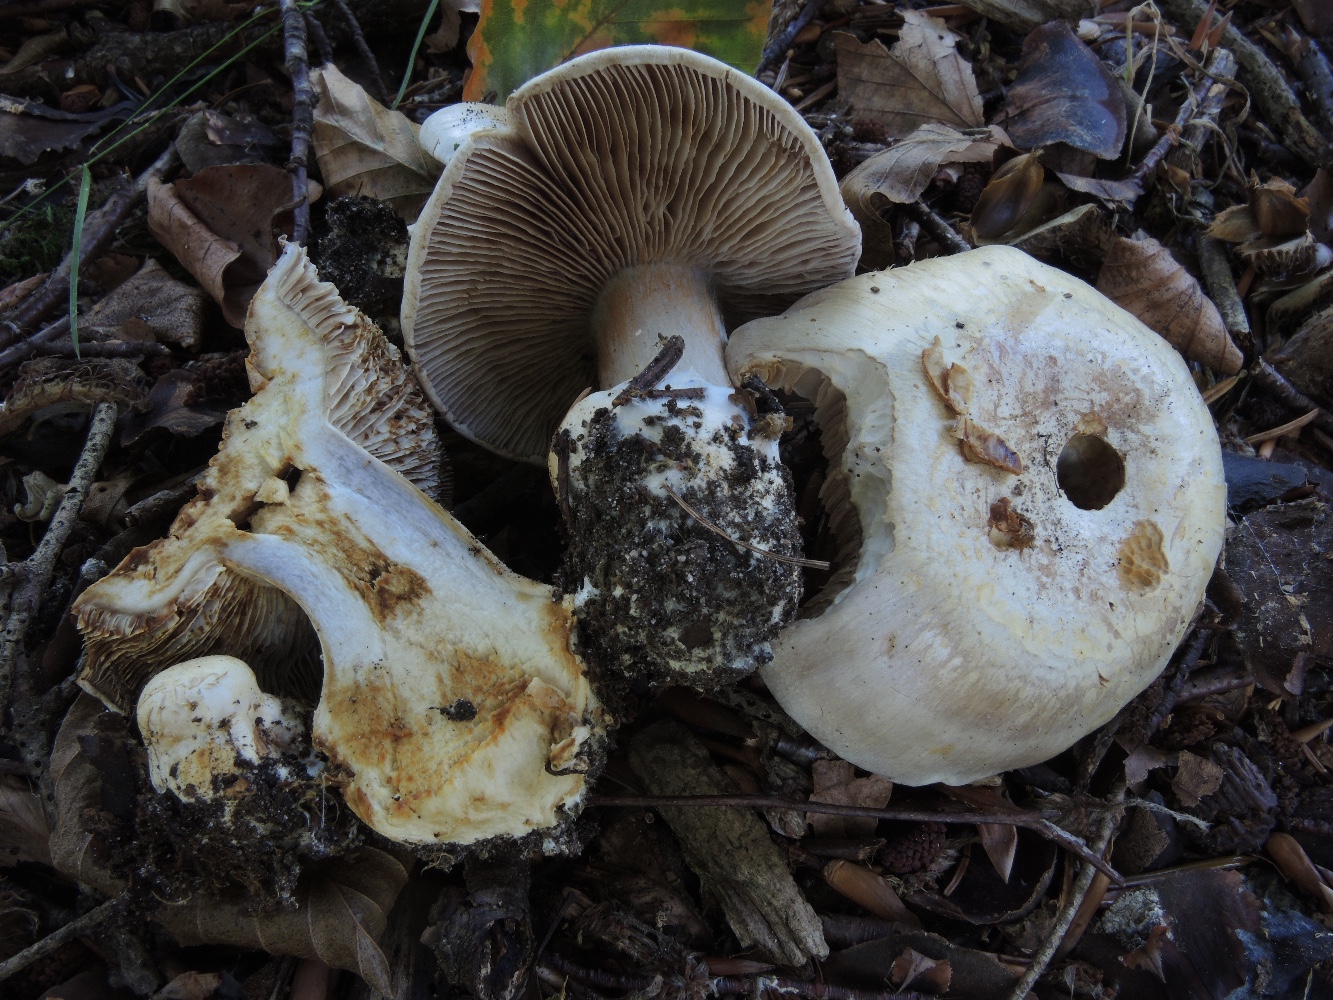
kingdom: Fungi
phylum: Basidiomycota
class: Agaricomycetes
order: Agaricales
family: Cortinariaceae
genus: Cortinarius
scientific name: Cortinarius foetens
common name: stribet slørhat
